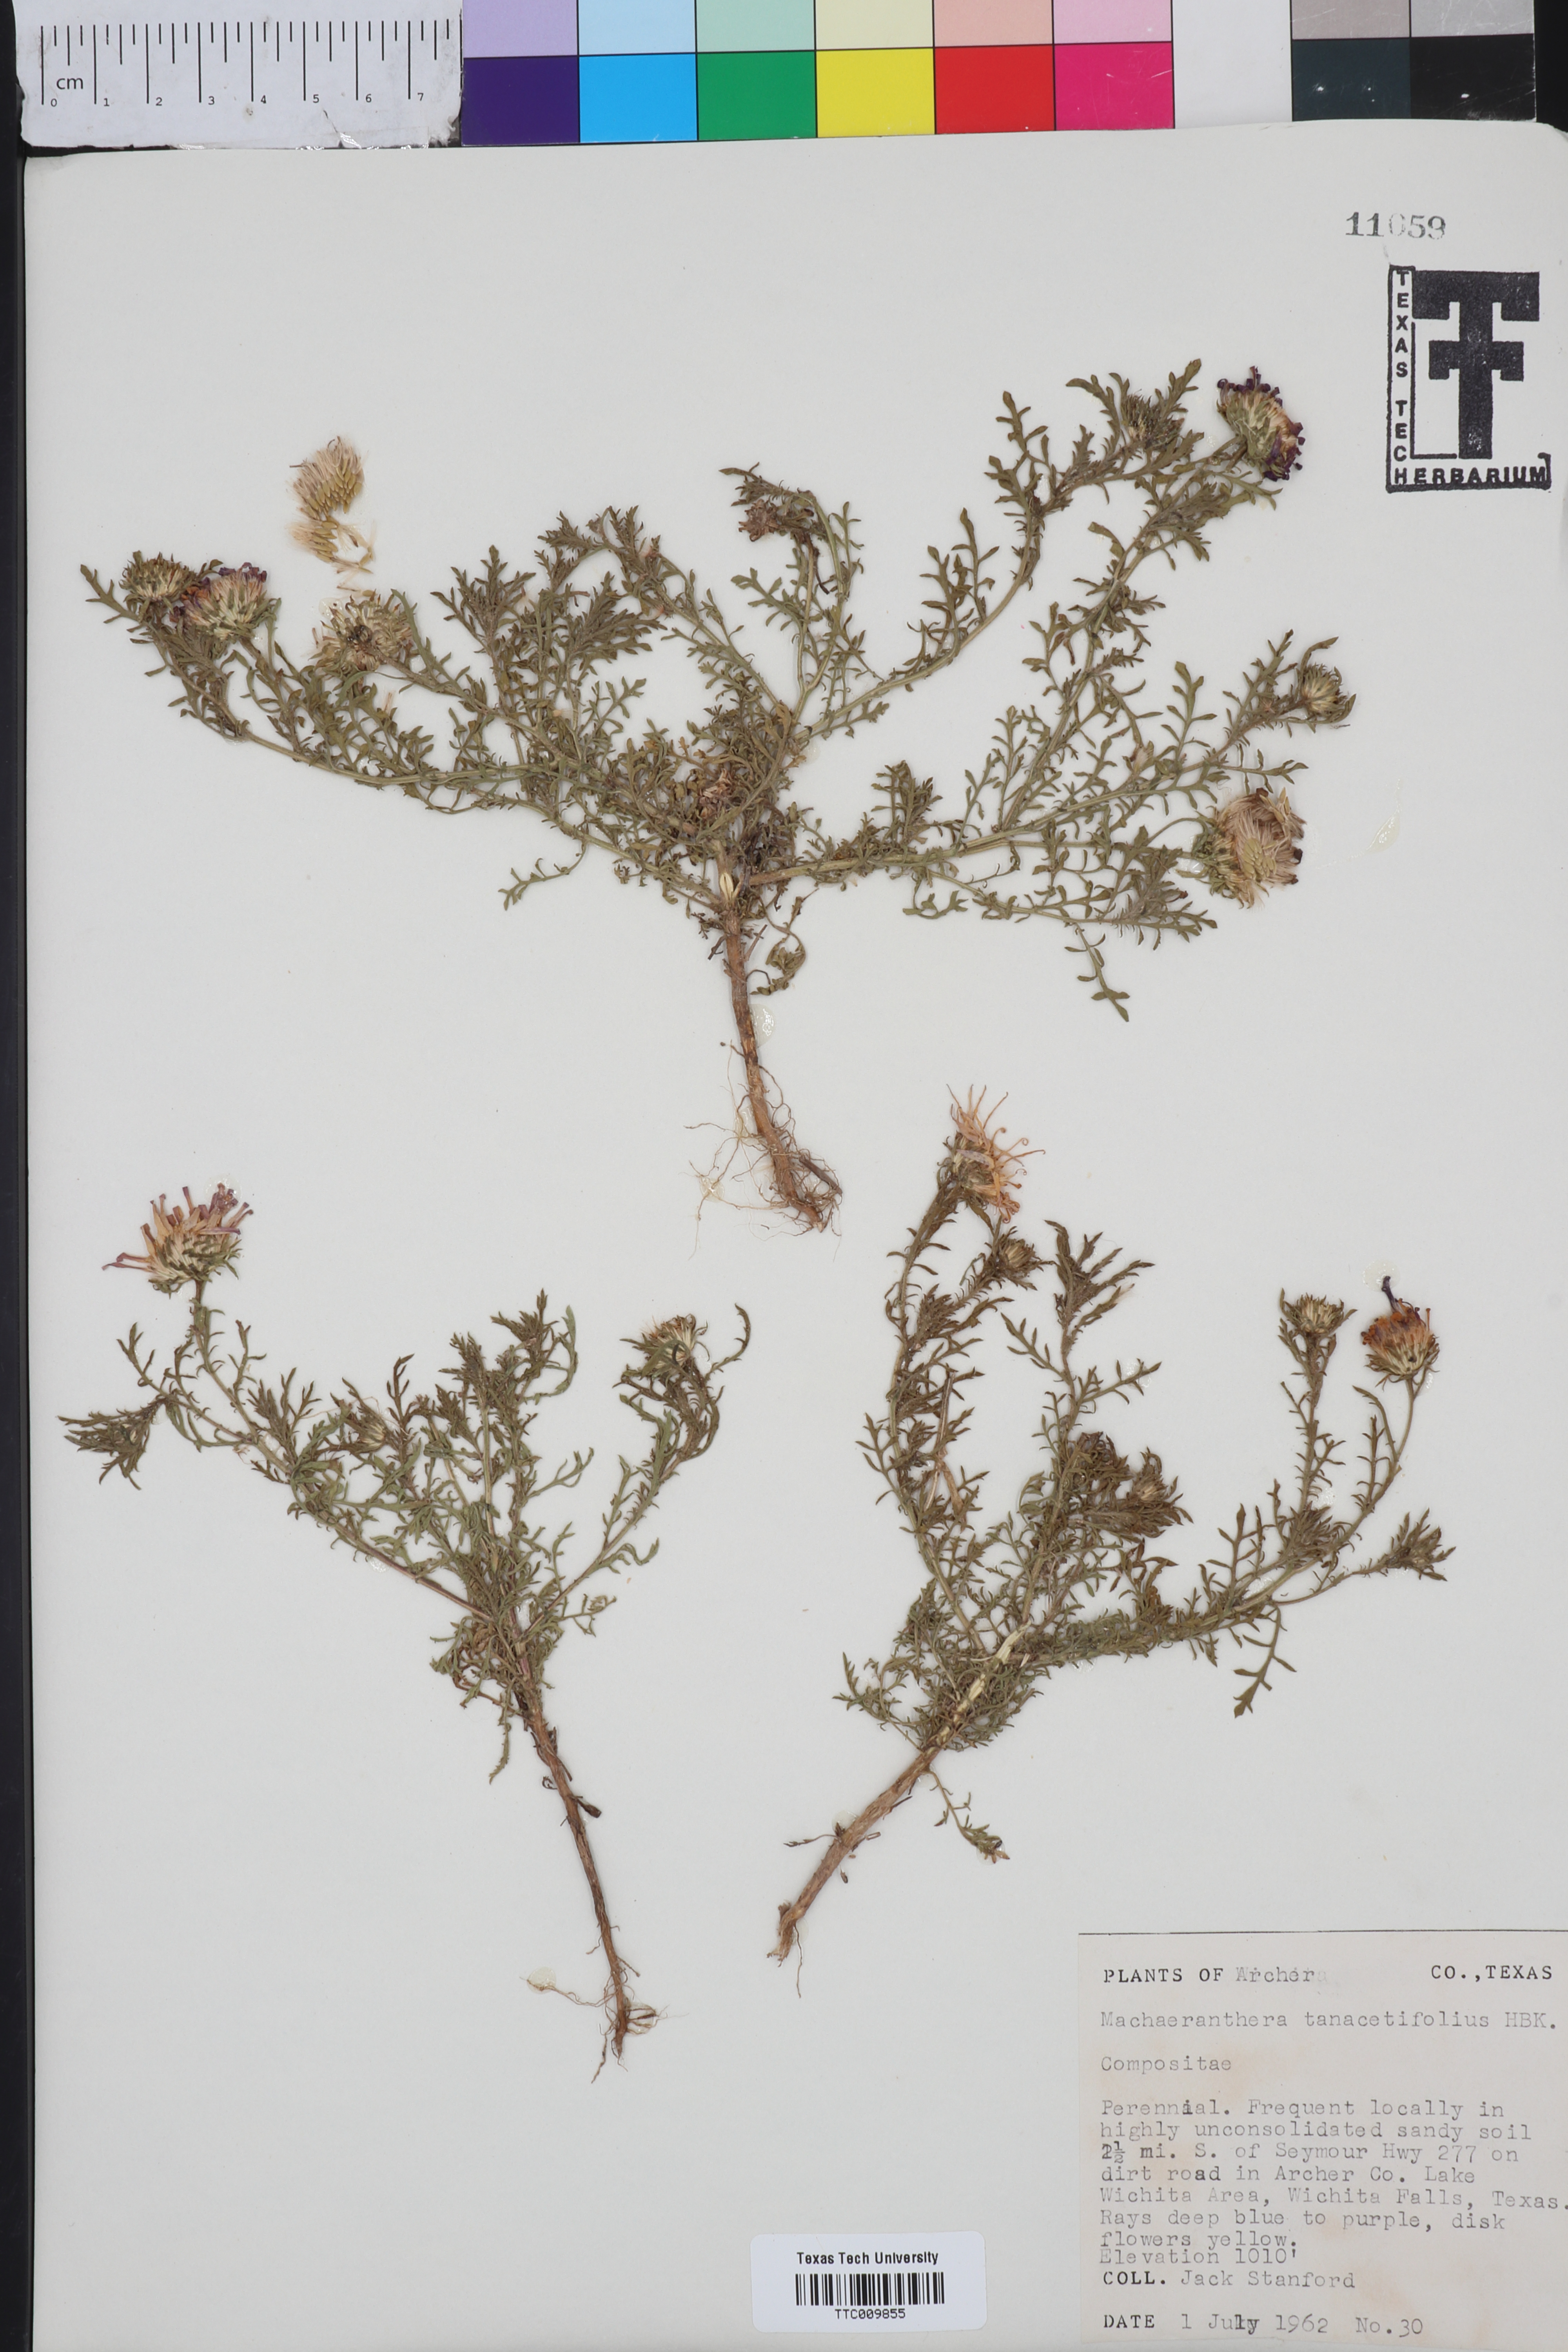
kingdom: Plantae
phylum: Tracheophyta
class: Magnoliopsida
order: Asterales
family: Asteraceae
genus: Machaeranthera
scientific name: Machaeranthera tanacetifolia
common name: Tansy-aster
